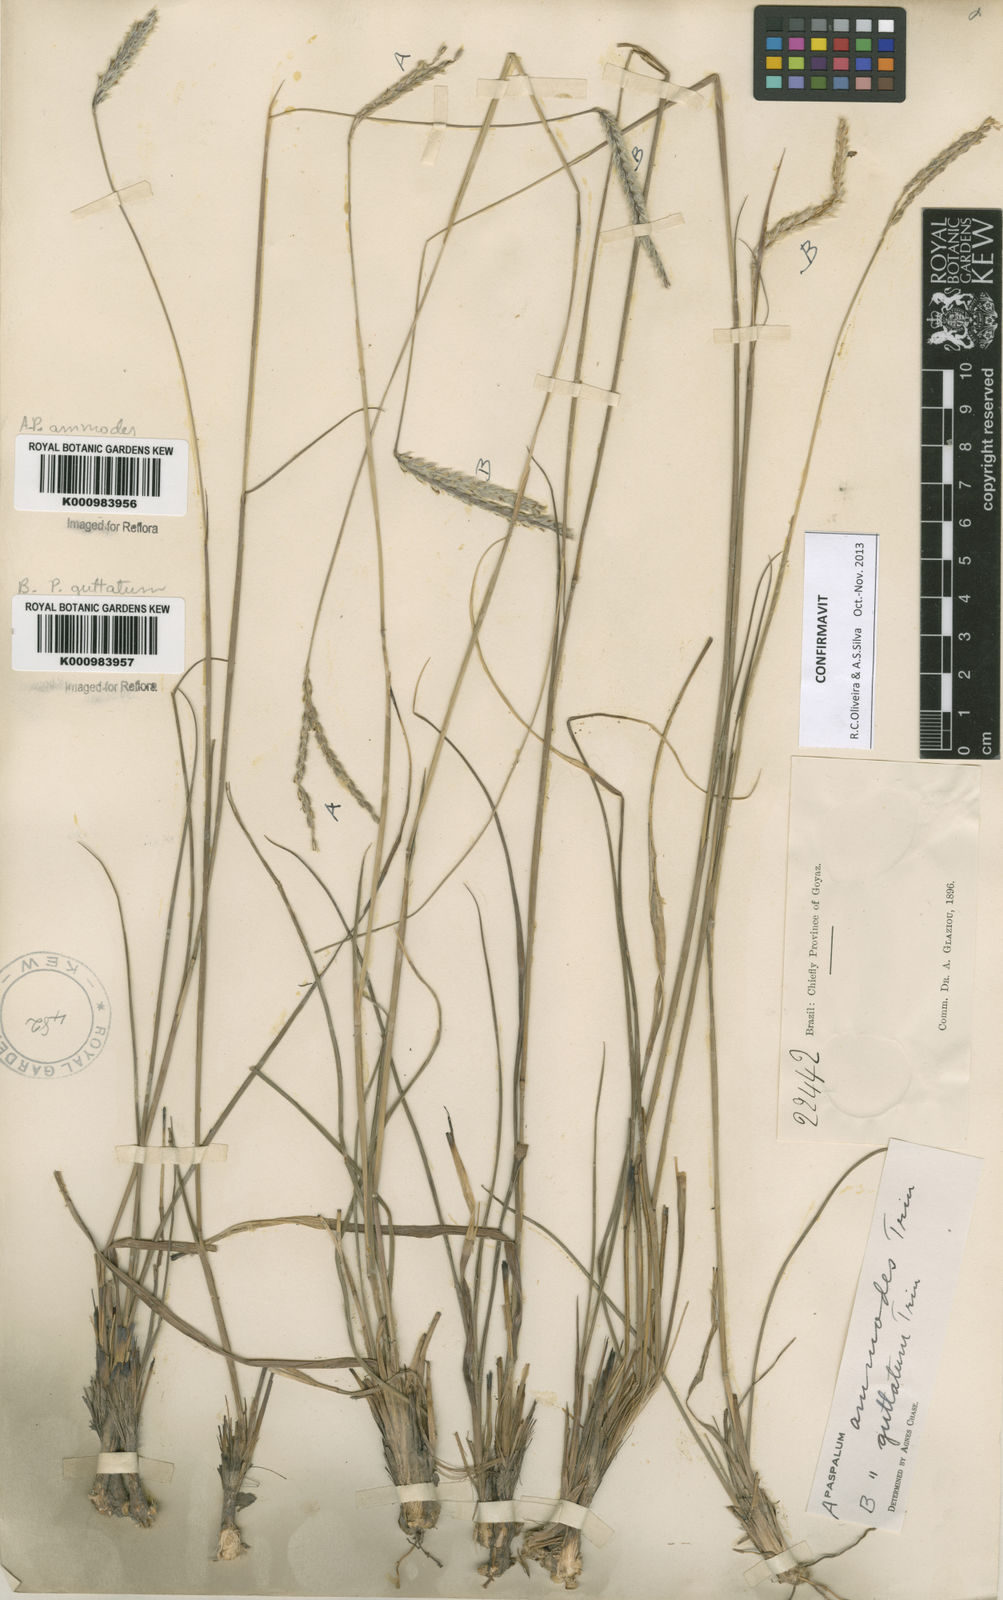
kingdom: Plantae
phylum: Tracheophyta
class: Liliopsida
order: Poales
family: Poaceae
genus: Paspalum
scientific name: Paspalum ammodes
